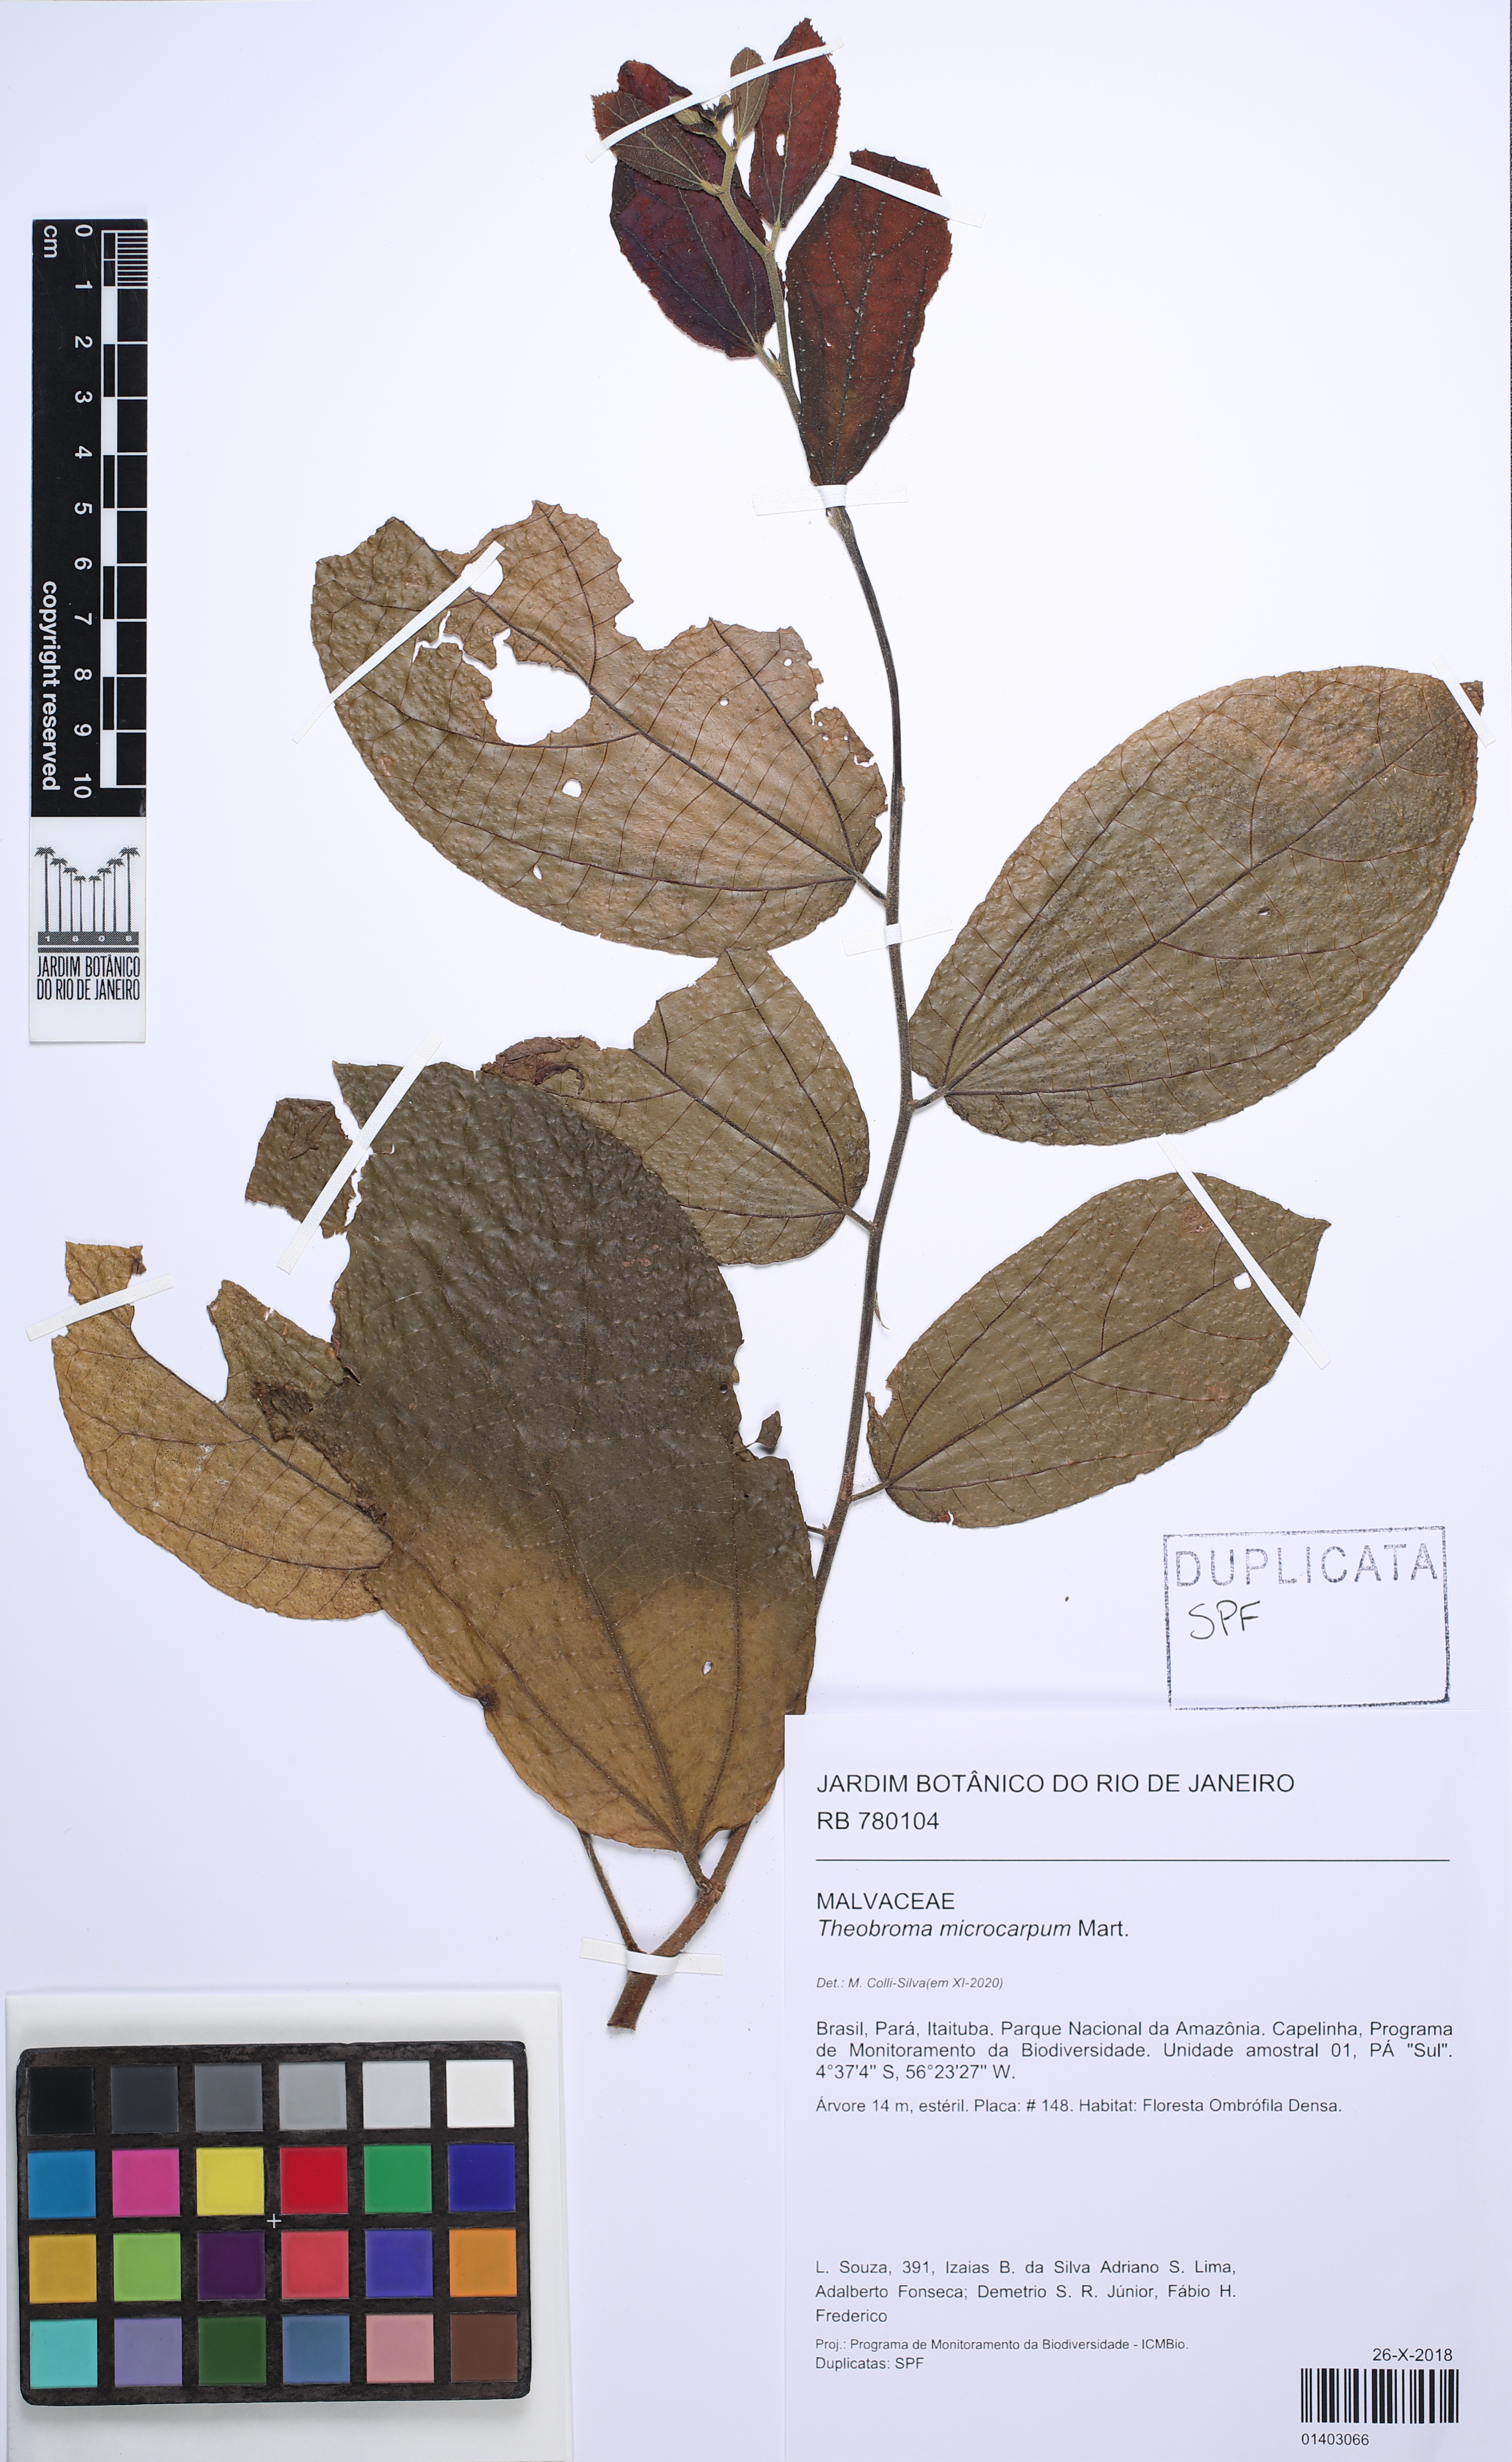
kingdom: Plantae
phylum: Tracheophyta
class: Magnoliopsida
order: Malvales
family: Malvaceae
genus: Theobroma
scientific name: Theobroma microcarpum
